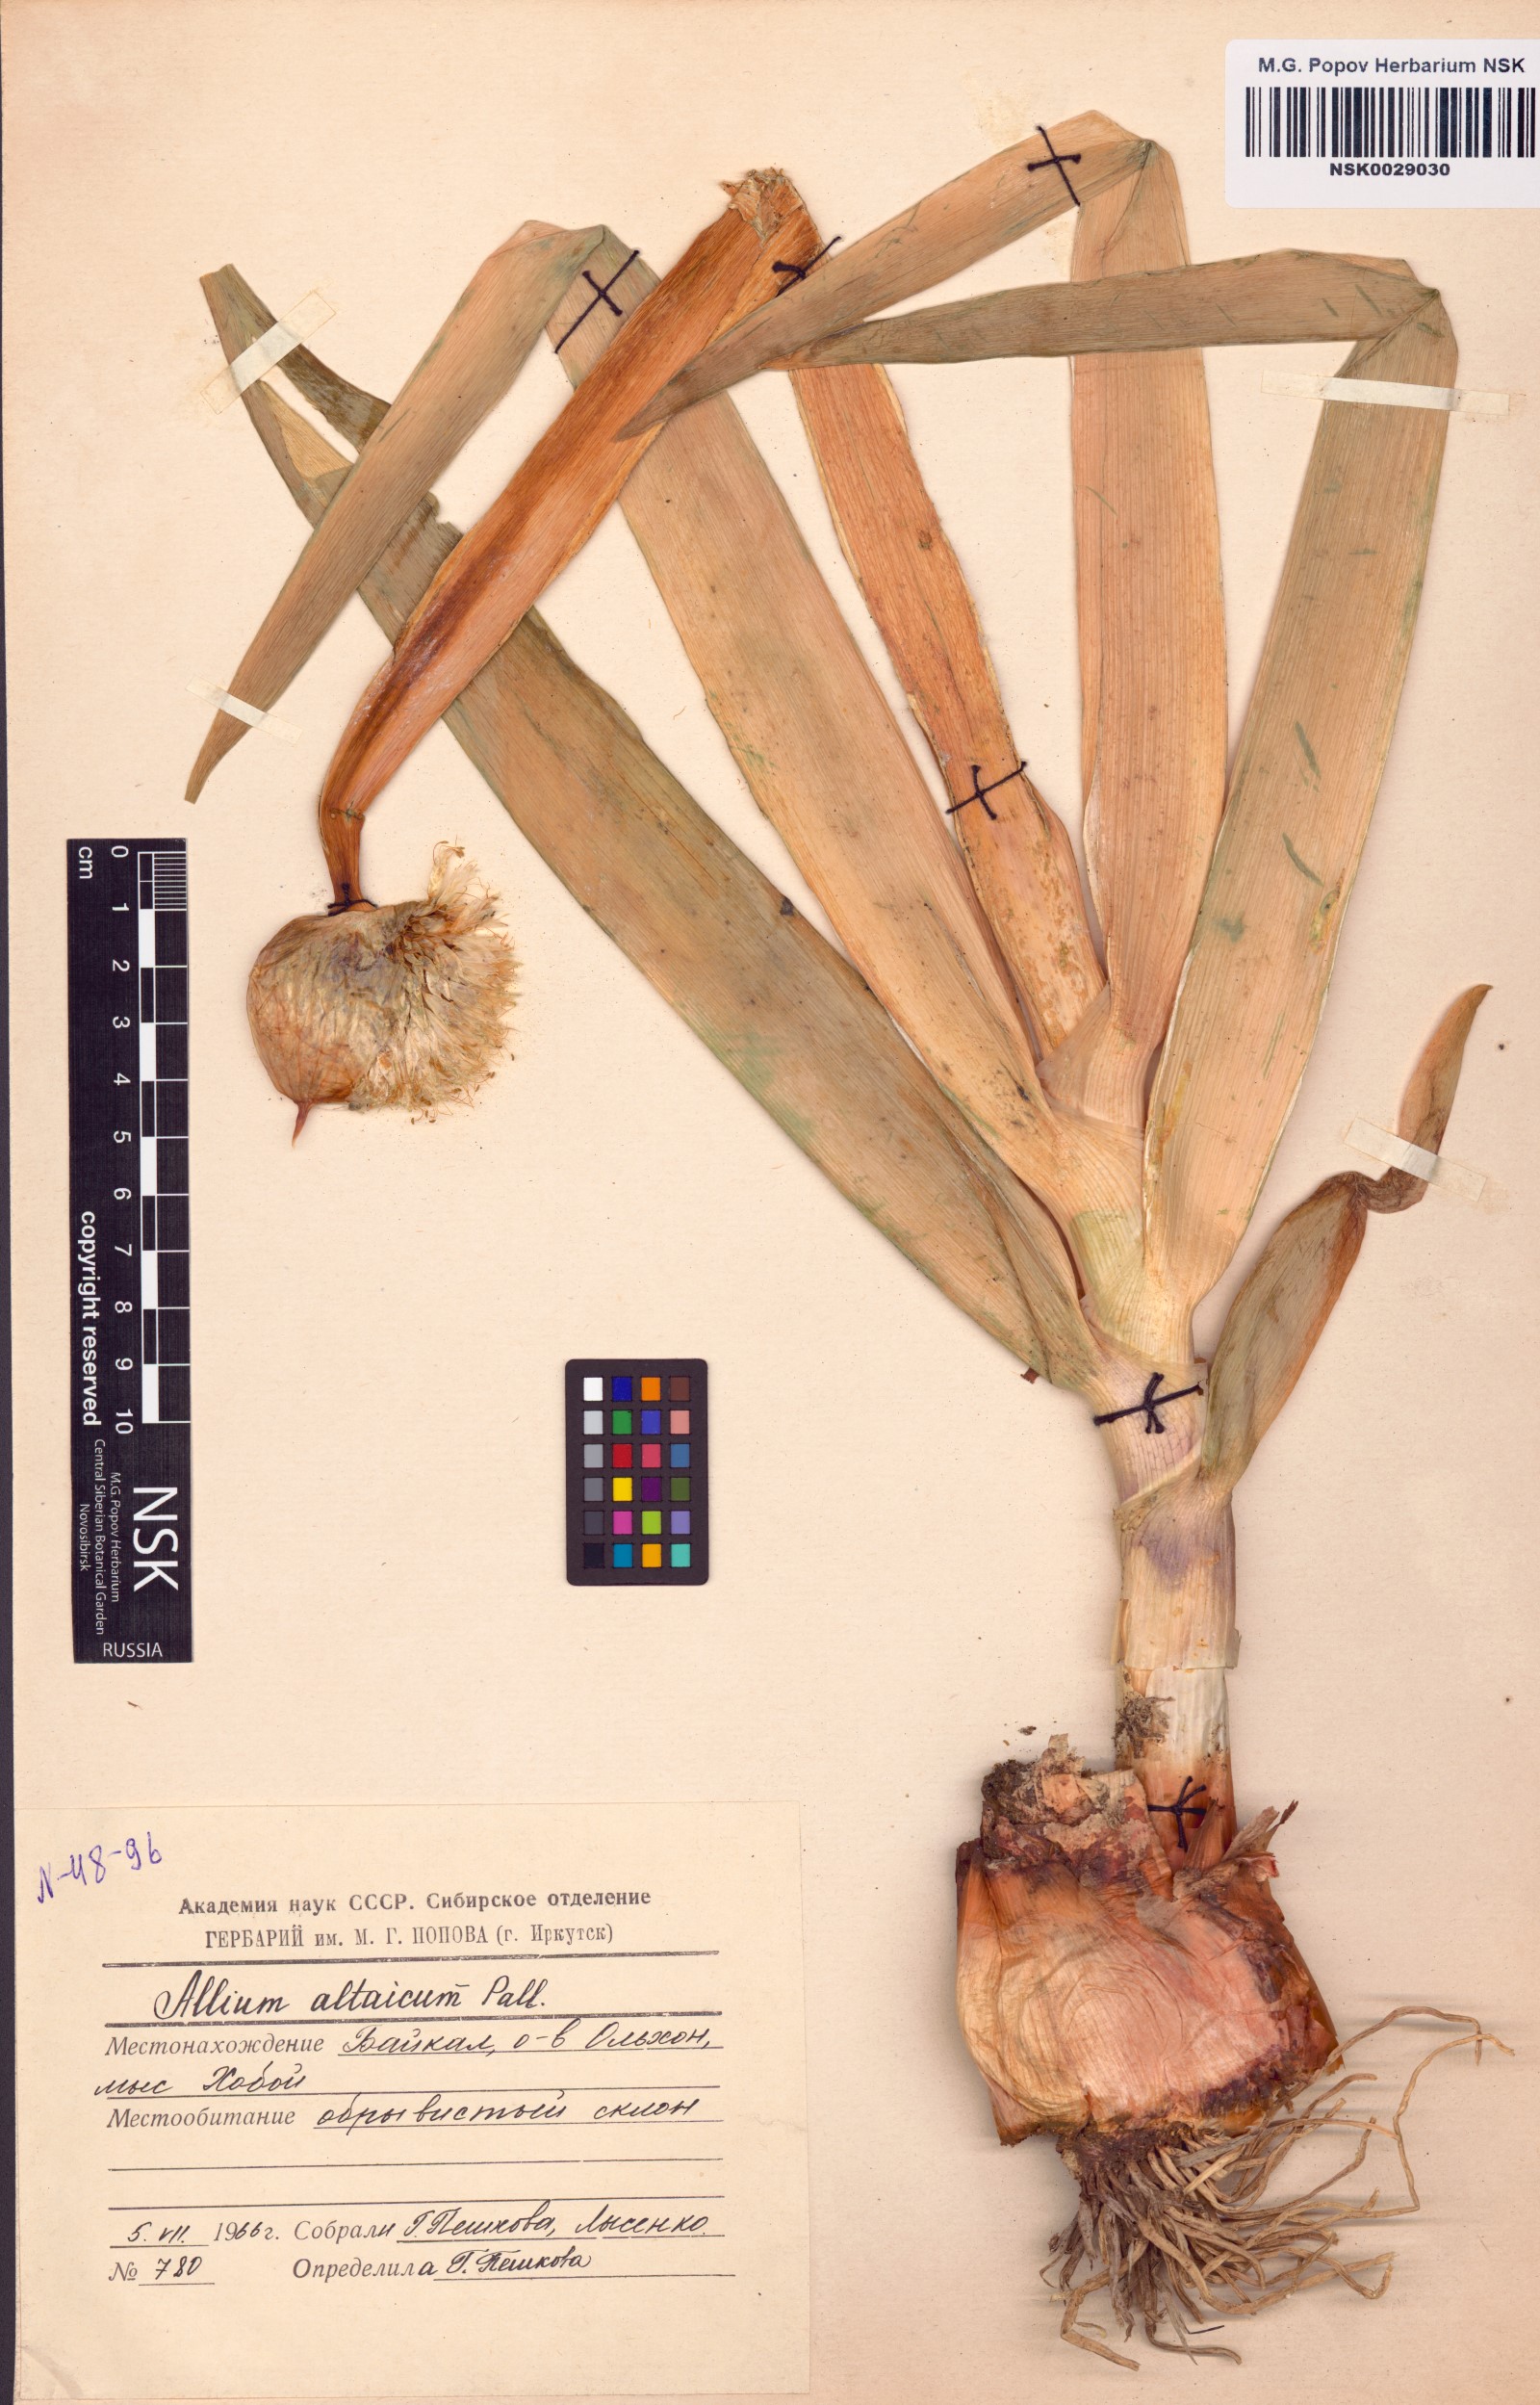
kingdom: Plantae
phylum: Tracheophyta
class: Liliopsida
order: Asparagales
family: Amaryllidaceae
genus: Allium
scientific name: Allium altaicum
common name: Altai onion
